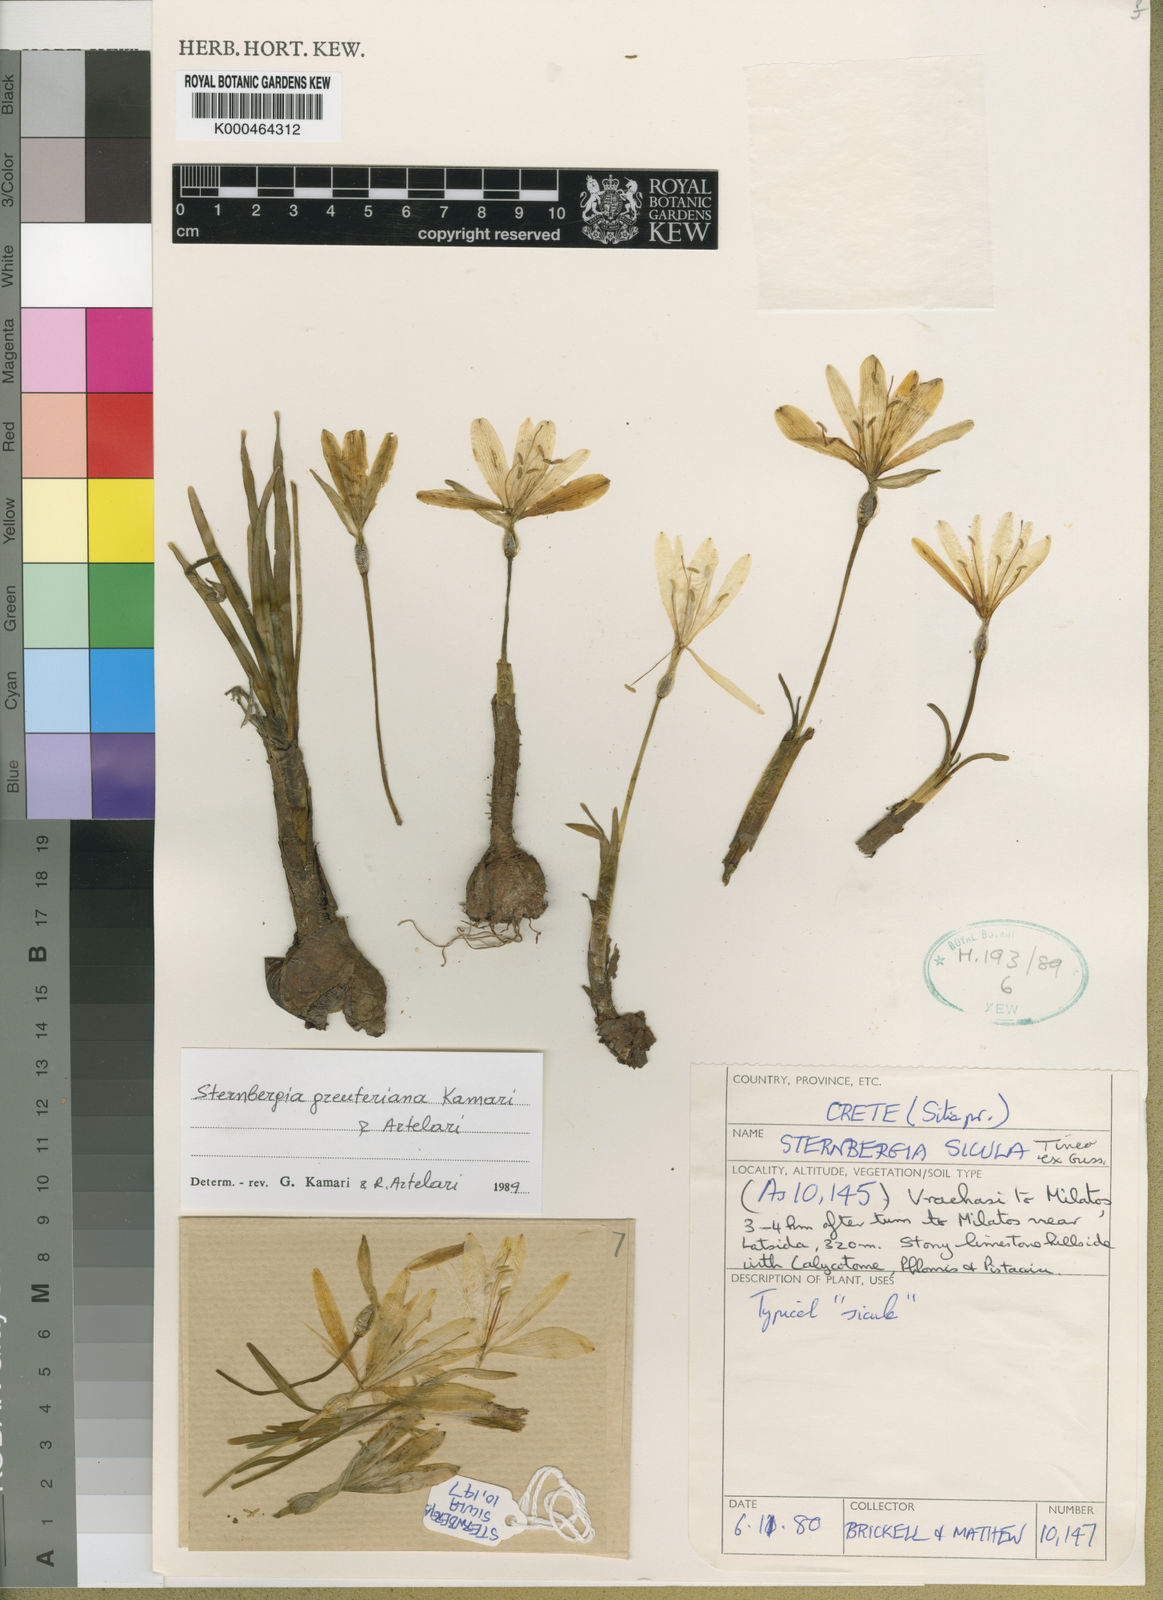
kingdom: Plantae
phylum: Tracheophyta
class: Liliopsida
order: Asparagales
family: Amaryllidaceae
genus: Sternbergia
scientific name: Sternbergia lutea
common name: Winter daffodil
